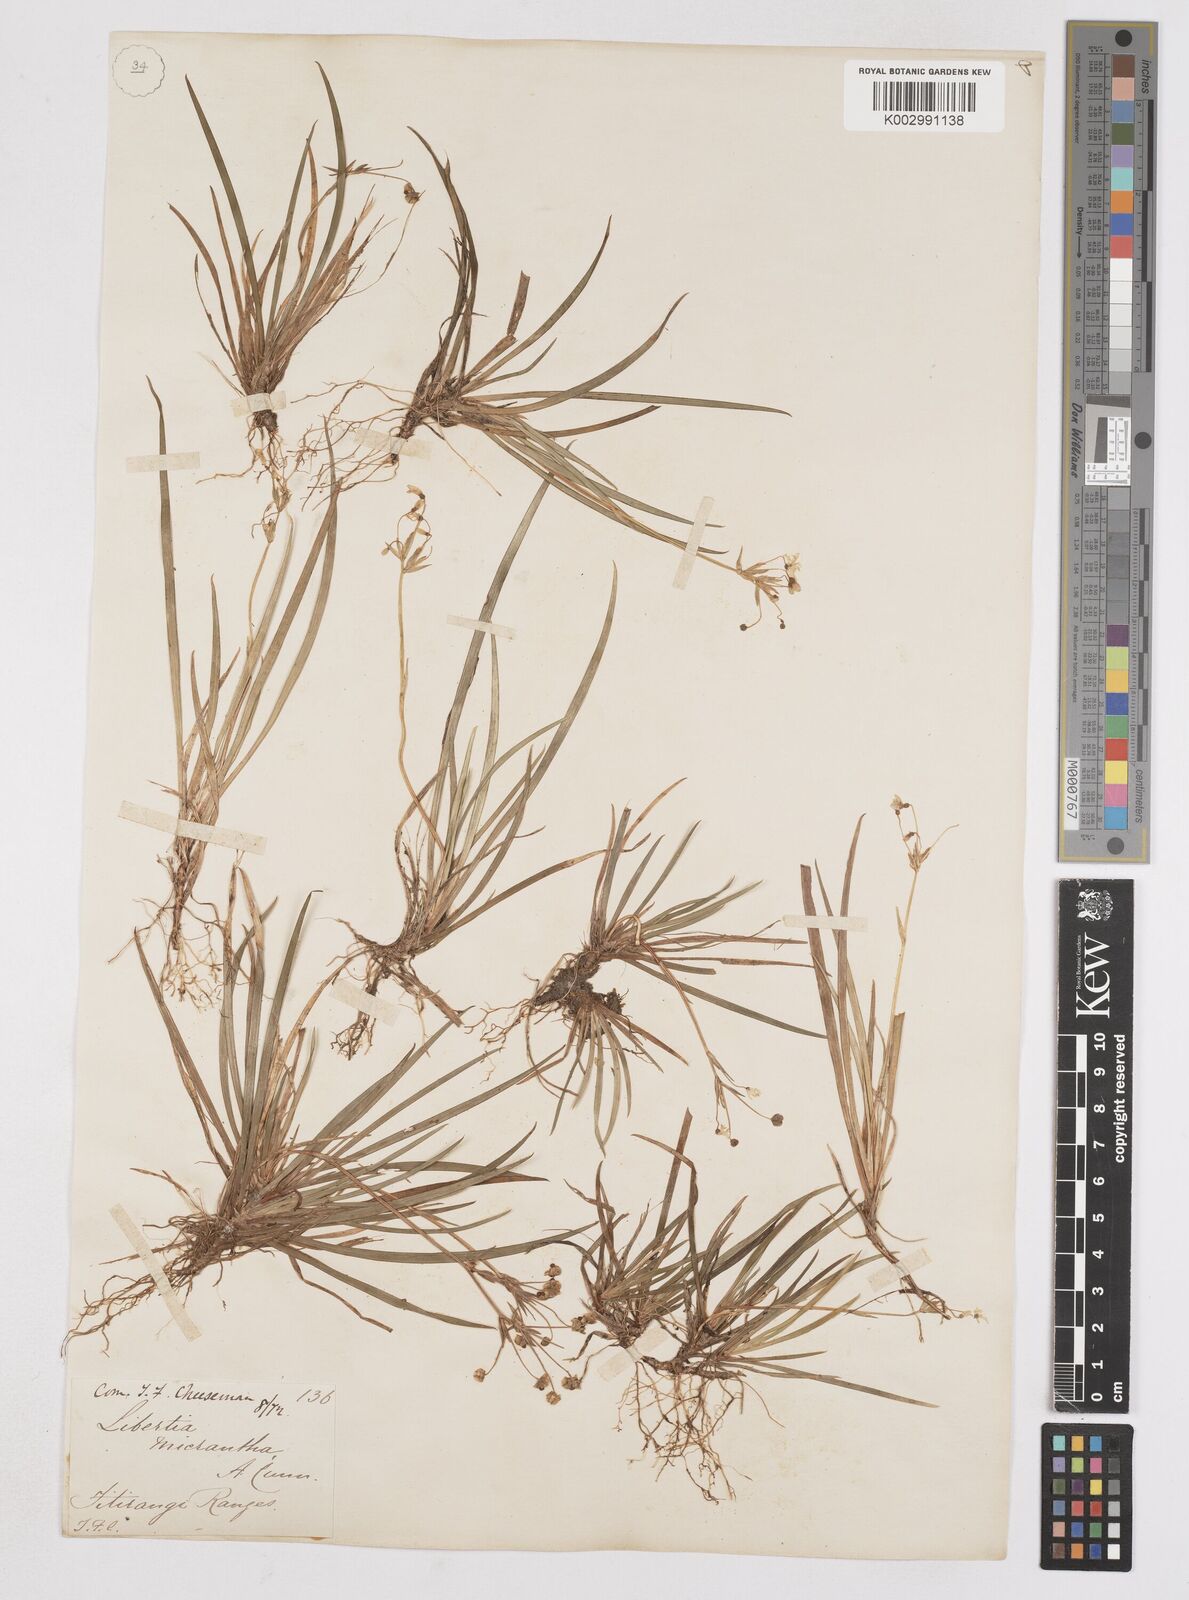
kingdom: Plantae
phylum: Tracheophyta
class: Liliopsida
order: Asparagales
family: Iridaceae
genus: Libertia
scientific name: Libertia pulchella
